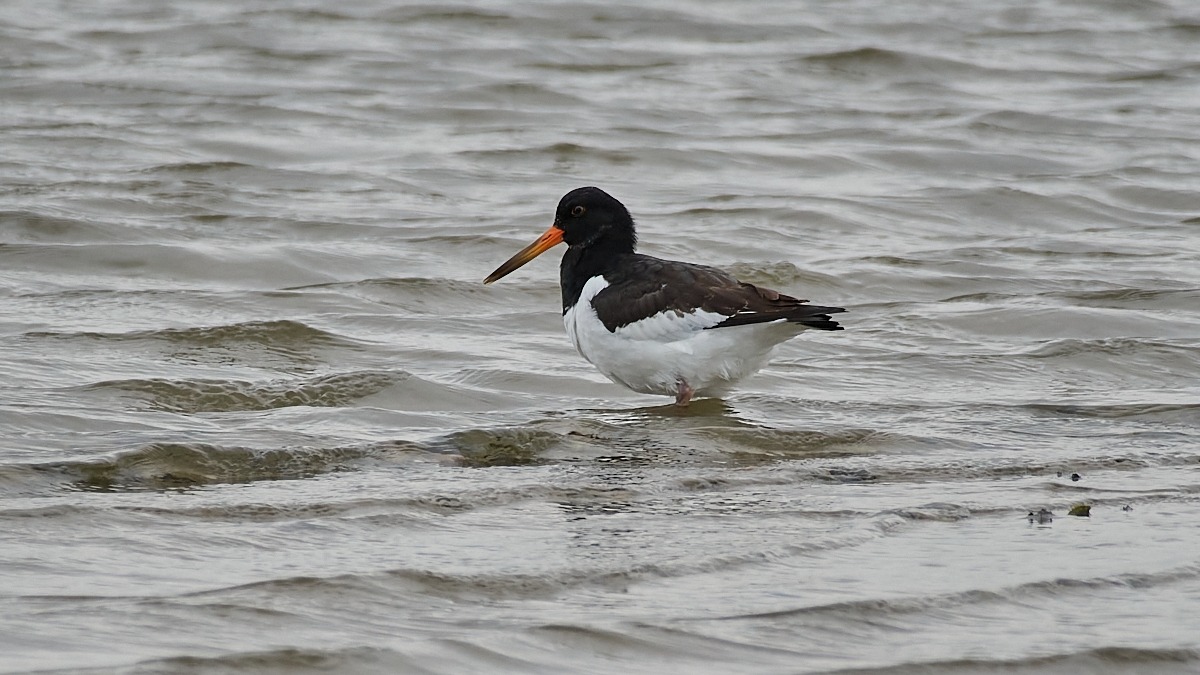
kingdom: Animalia
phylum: Chordata
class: Aves
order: Charadriiformes
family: Haematopodidae
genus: Haematopus
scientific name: Haematopus ostralegus
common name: Strandskade
